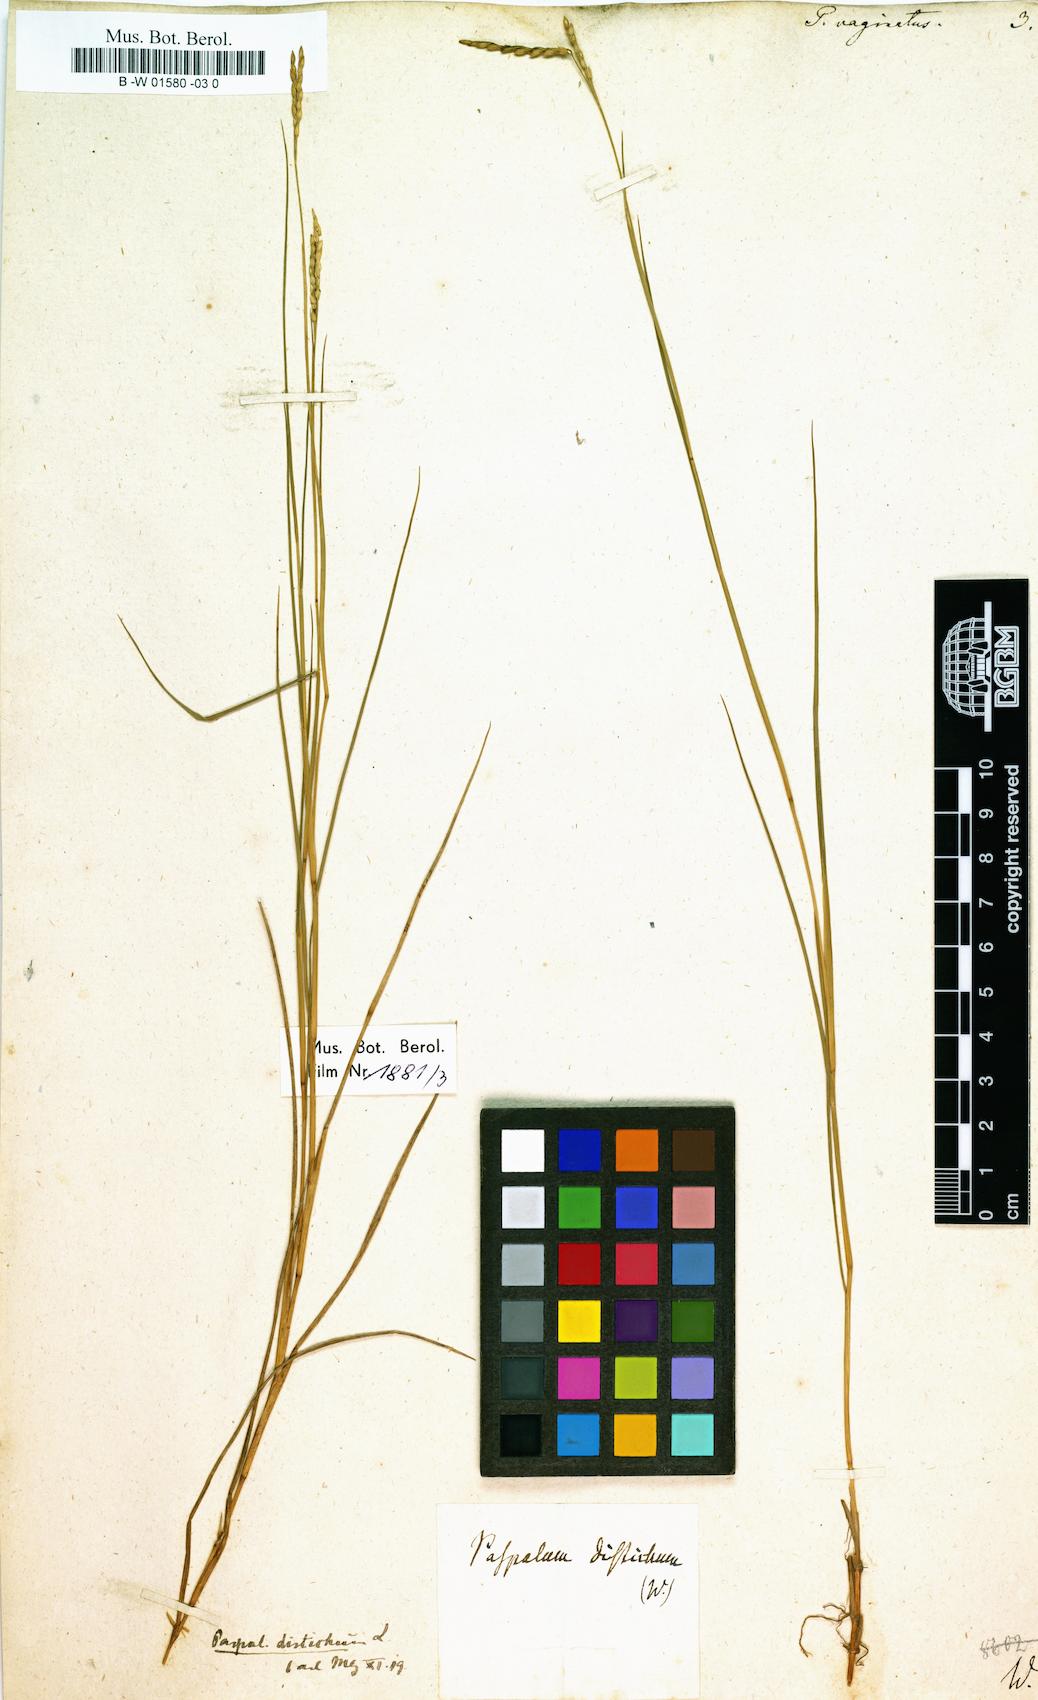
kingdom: Plantae
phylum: Tracheophyta
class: Liliopsida
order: Poales
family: Poaceae
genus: Paspalus
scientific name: Paspalus
